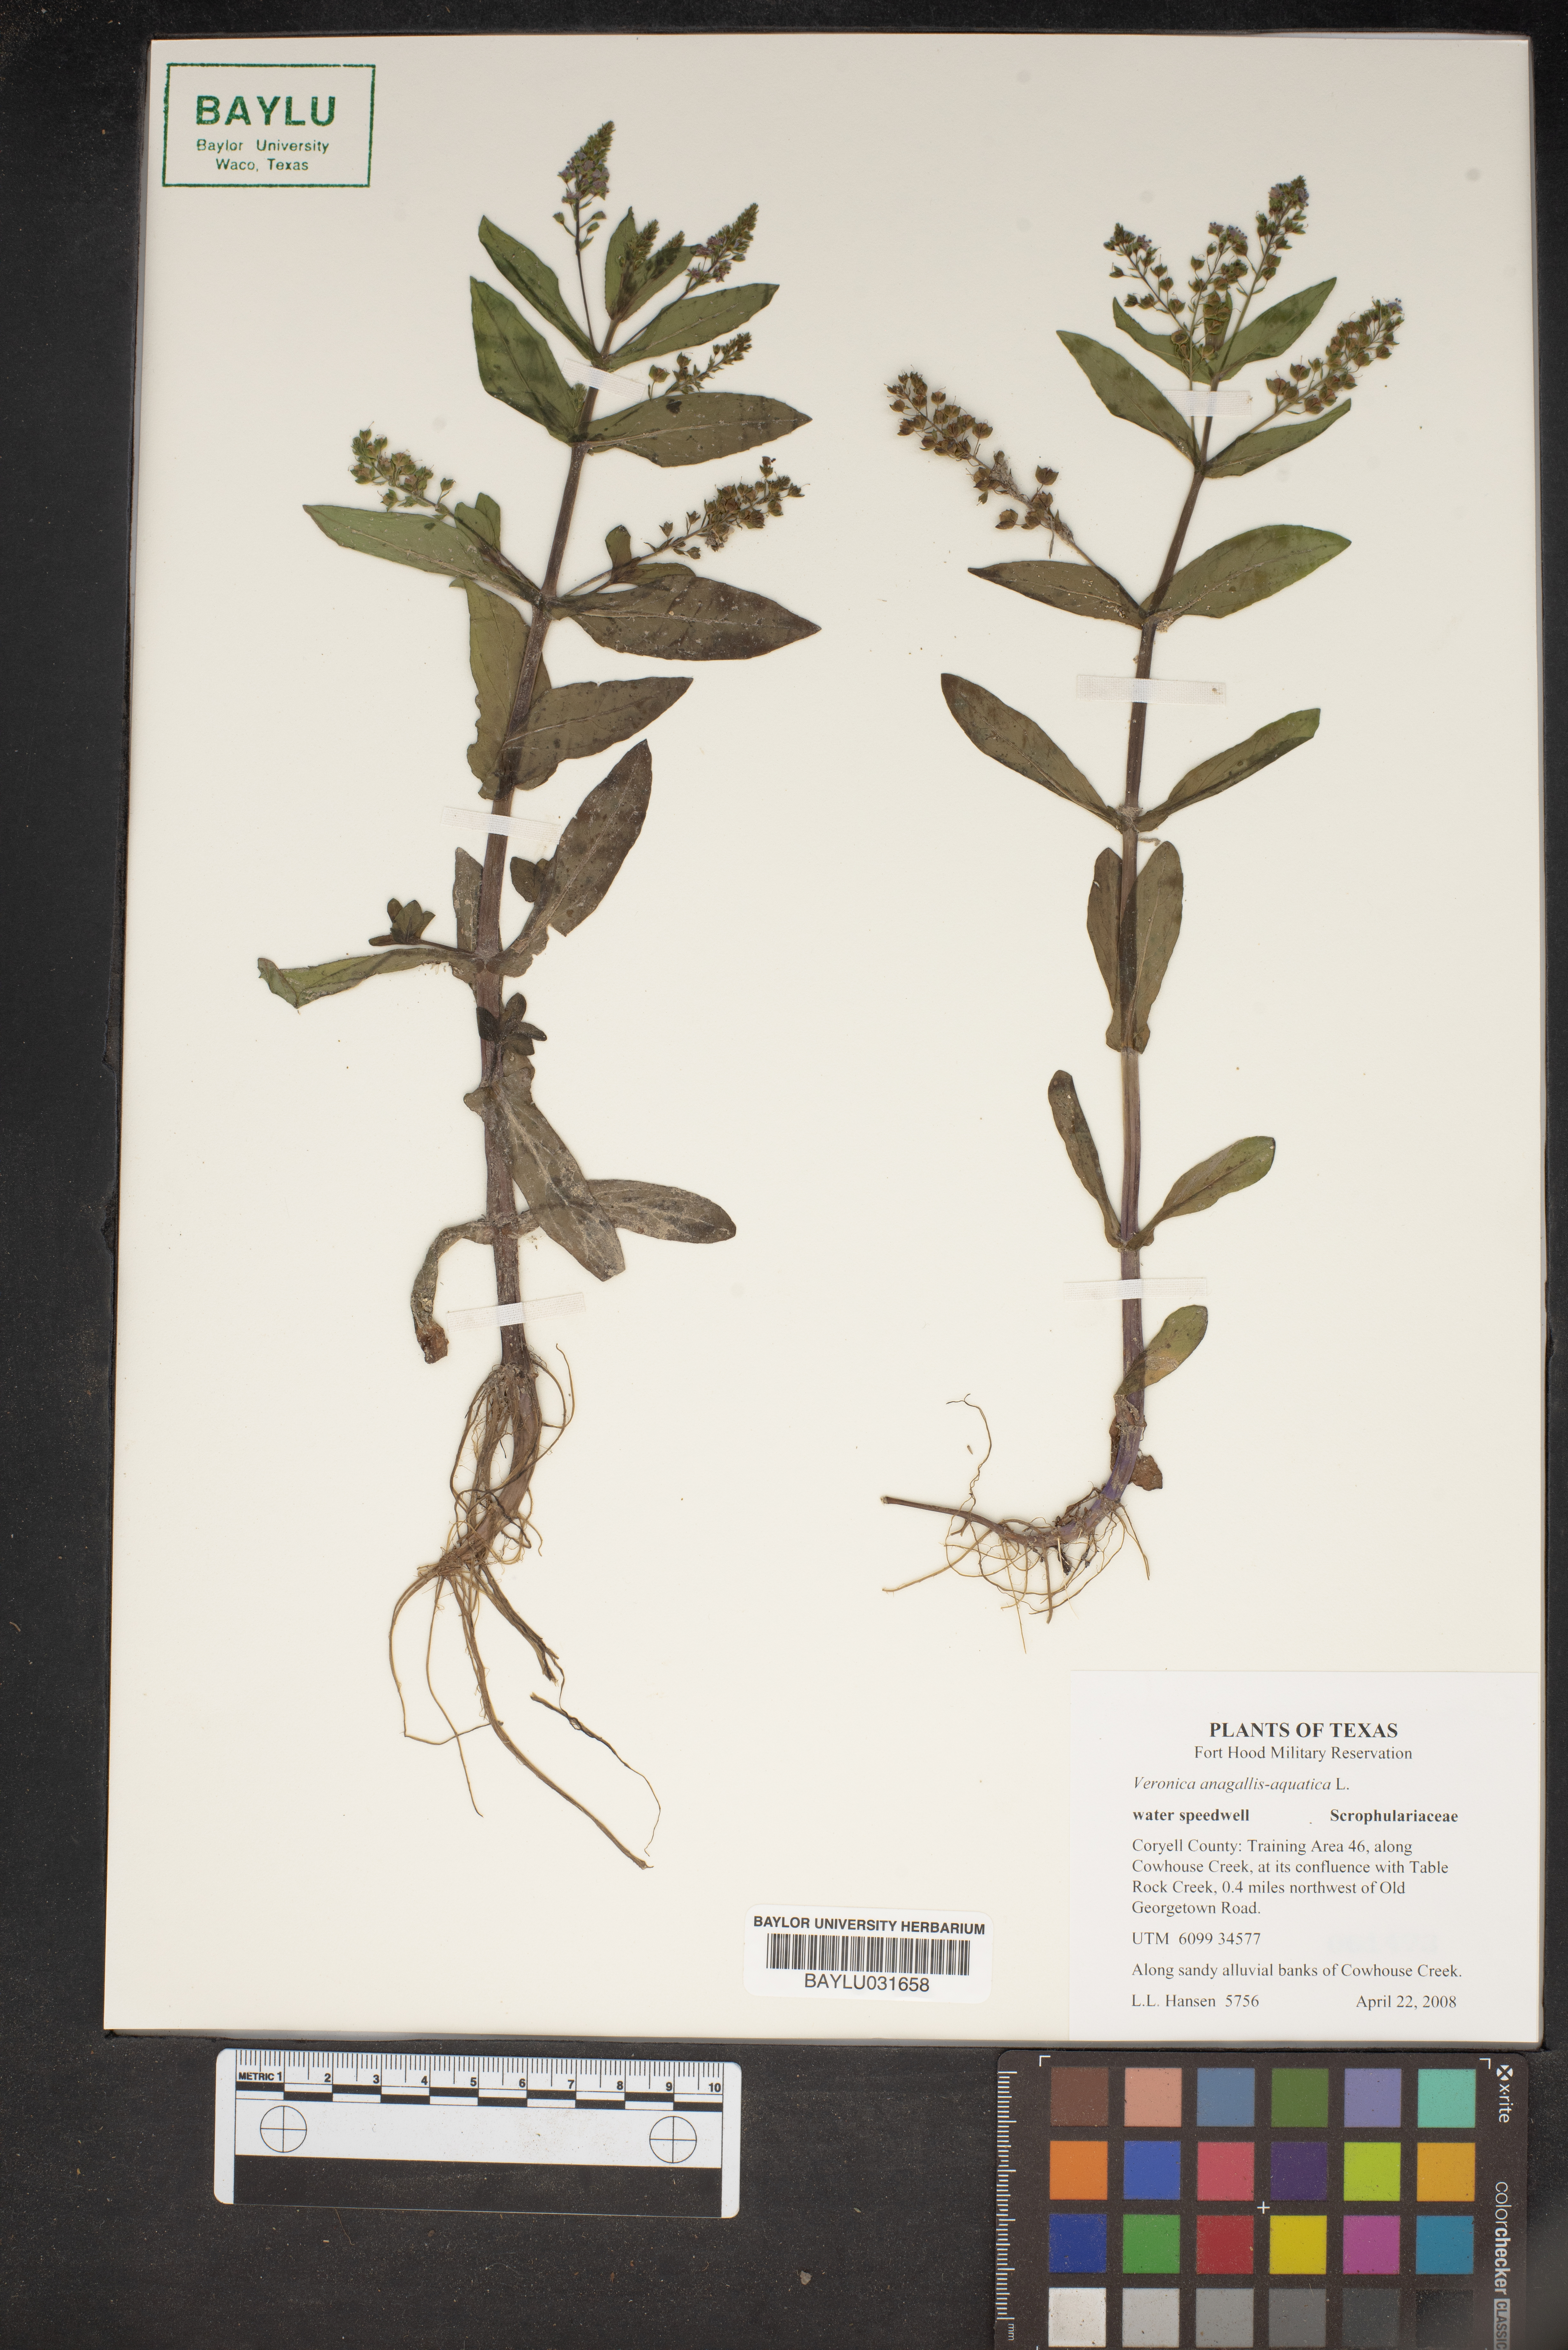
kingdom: Plantae
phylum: Tracheophyta
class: Magnoliopsida
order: Lamiales
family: Plantaginaceae
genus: Veronica
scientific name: Veronica anagallis-aquatica
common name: Water speedwell
